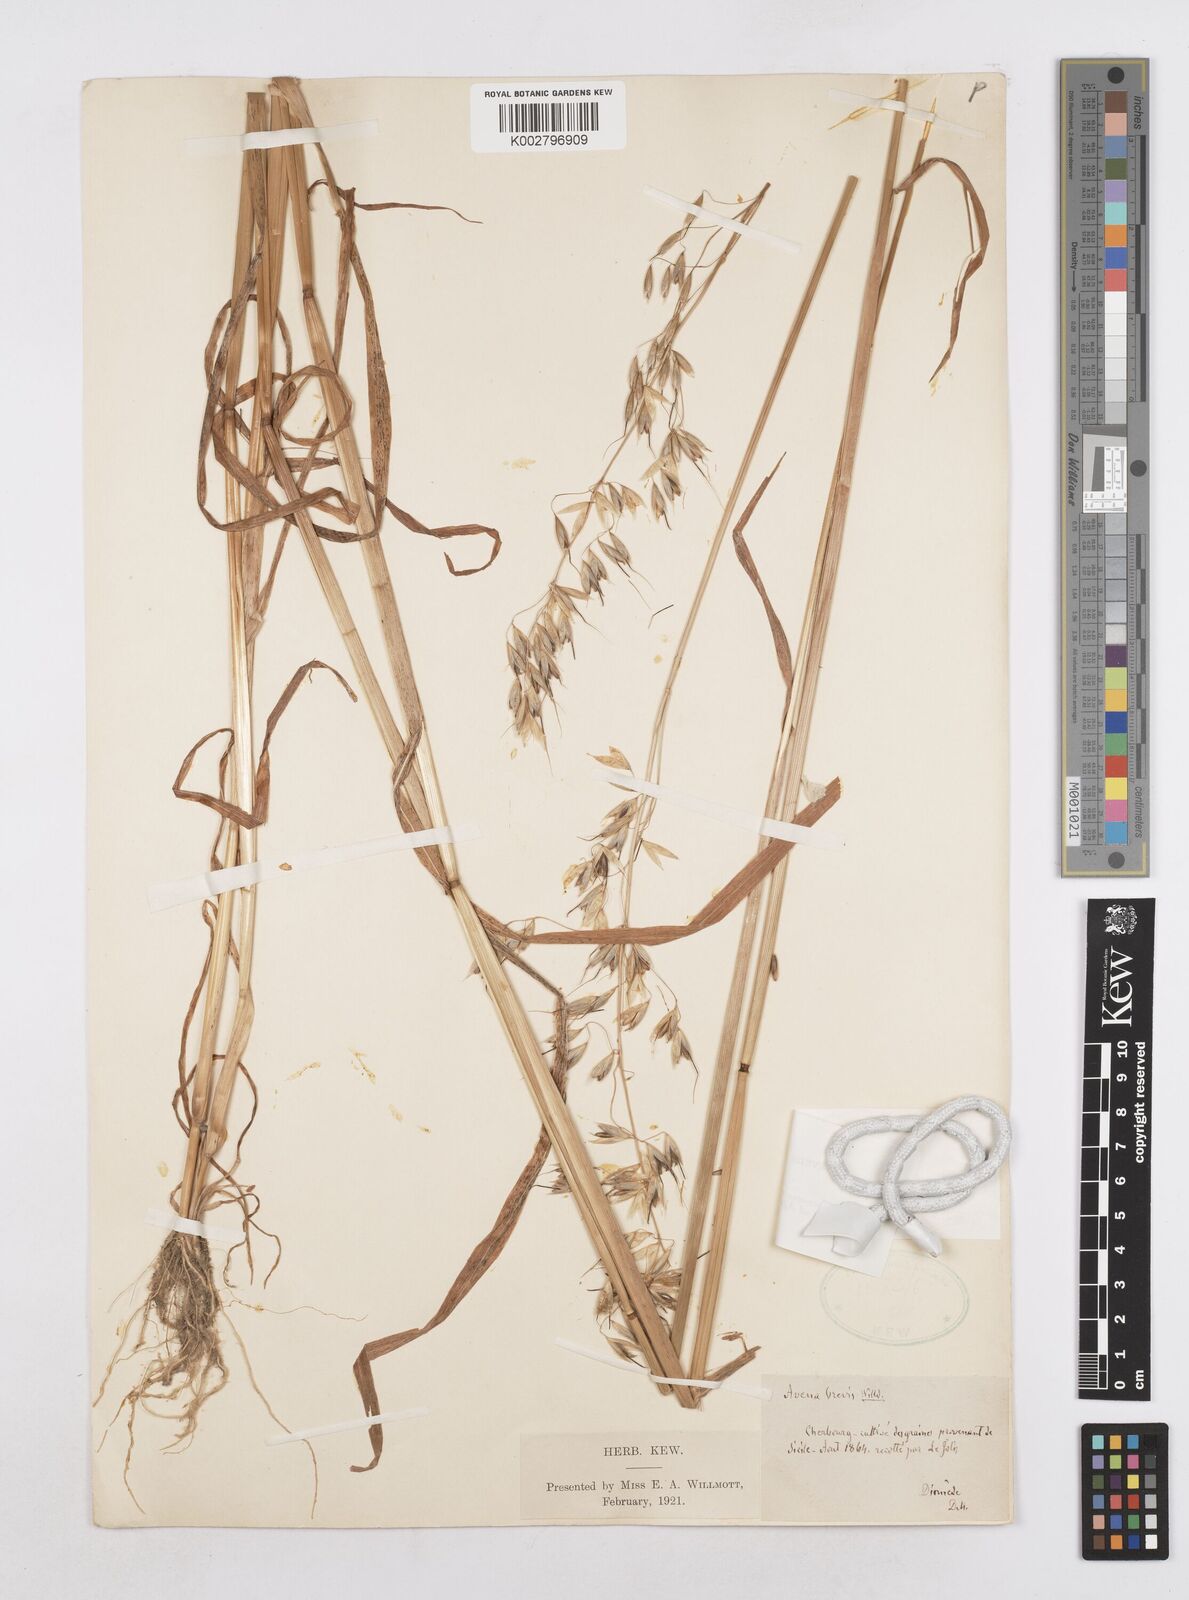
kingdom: Plantae
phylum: Tracheophyta
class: Liliopsida
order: Poales
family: Poaceae
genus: Avena
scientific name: Avena brevis
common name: Short oat
